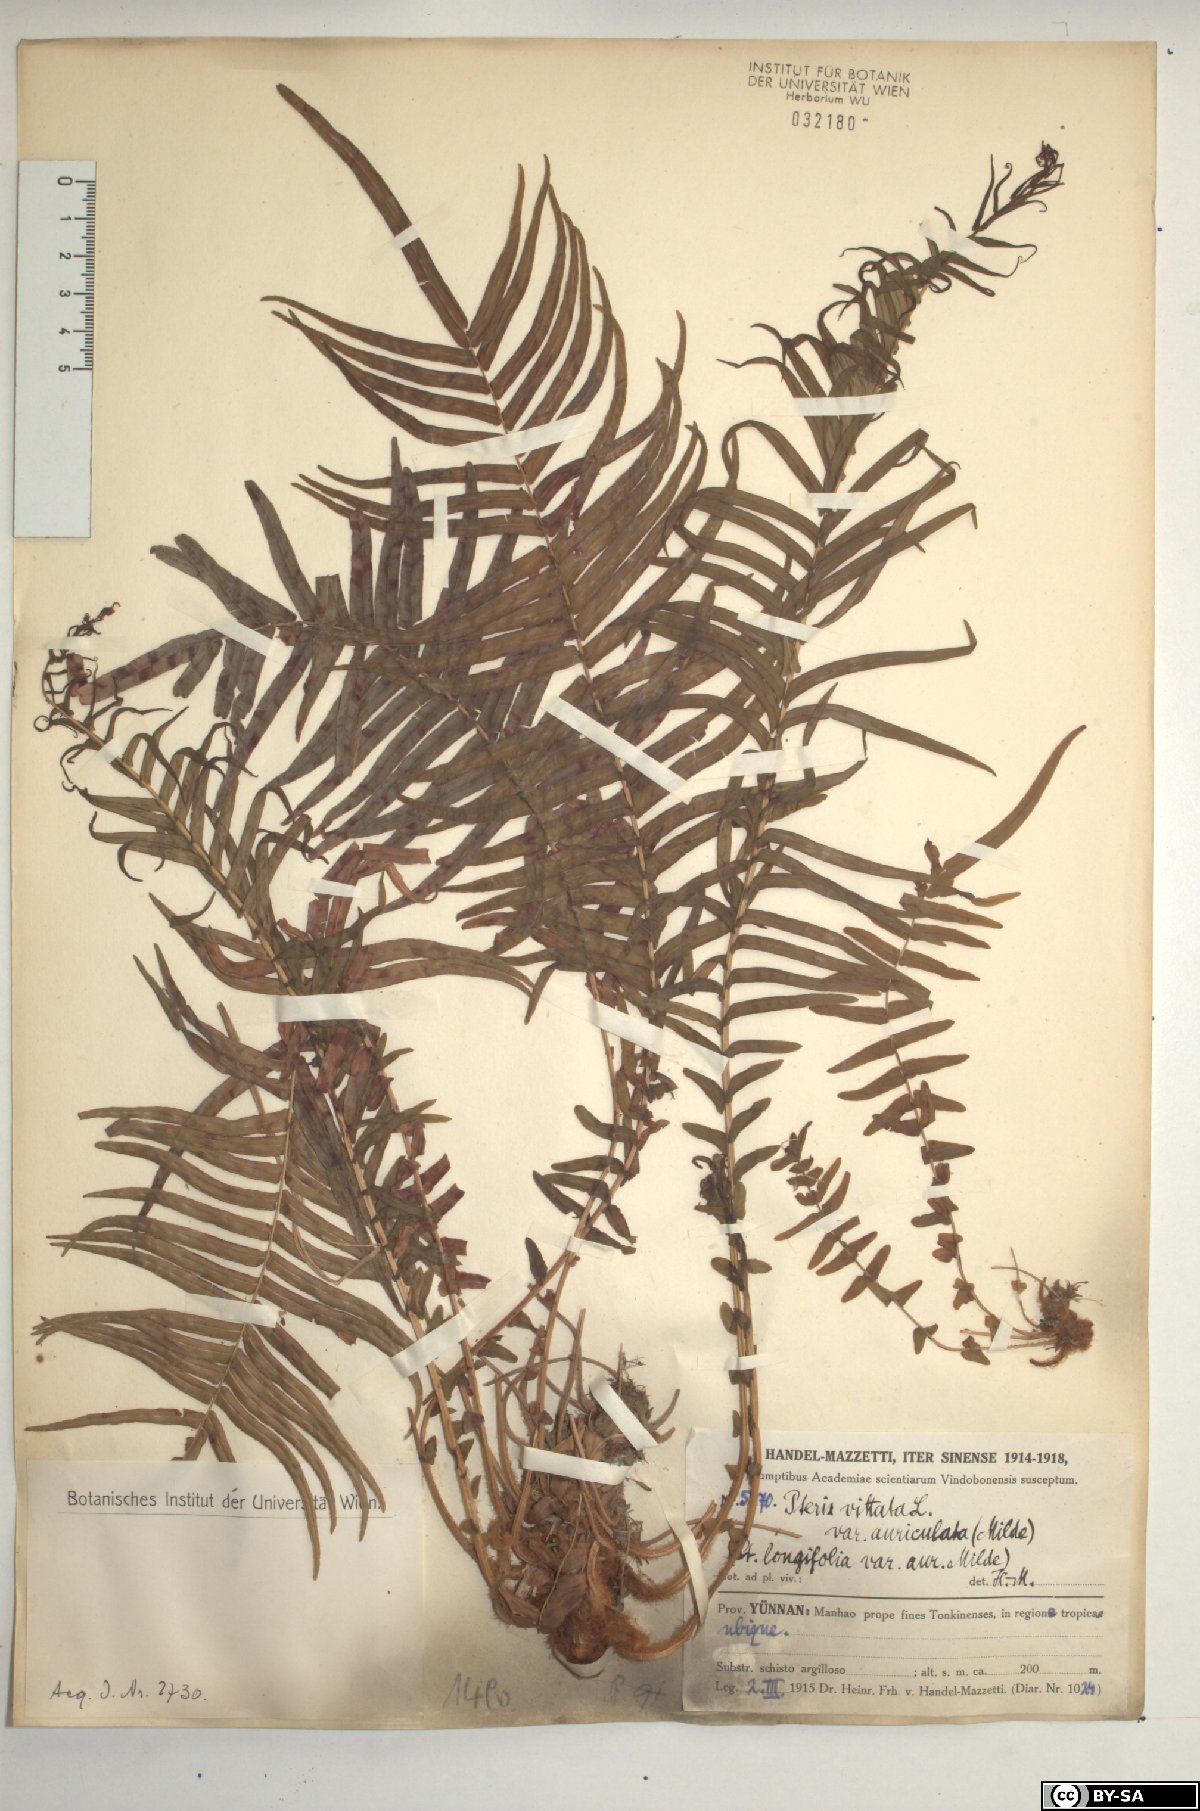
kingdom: Plantae
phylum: Tracheophyta
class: Polypodiopsida
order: Polypodiales
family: Pteridaceae
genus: Pteris
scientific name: Pteris vittata
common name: Ladder brake
